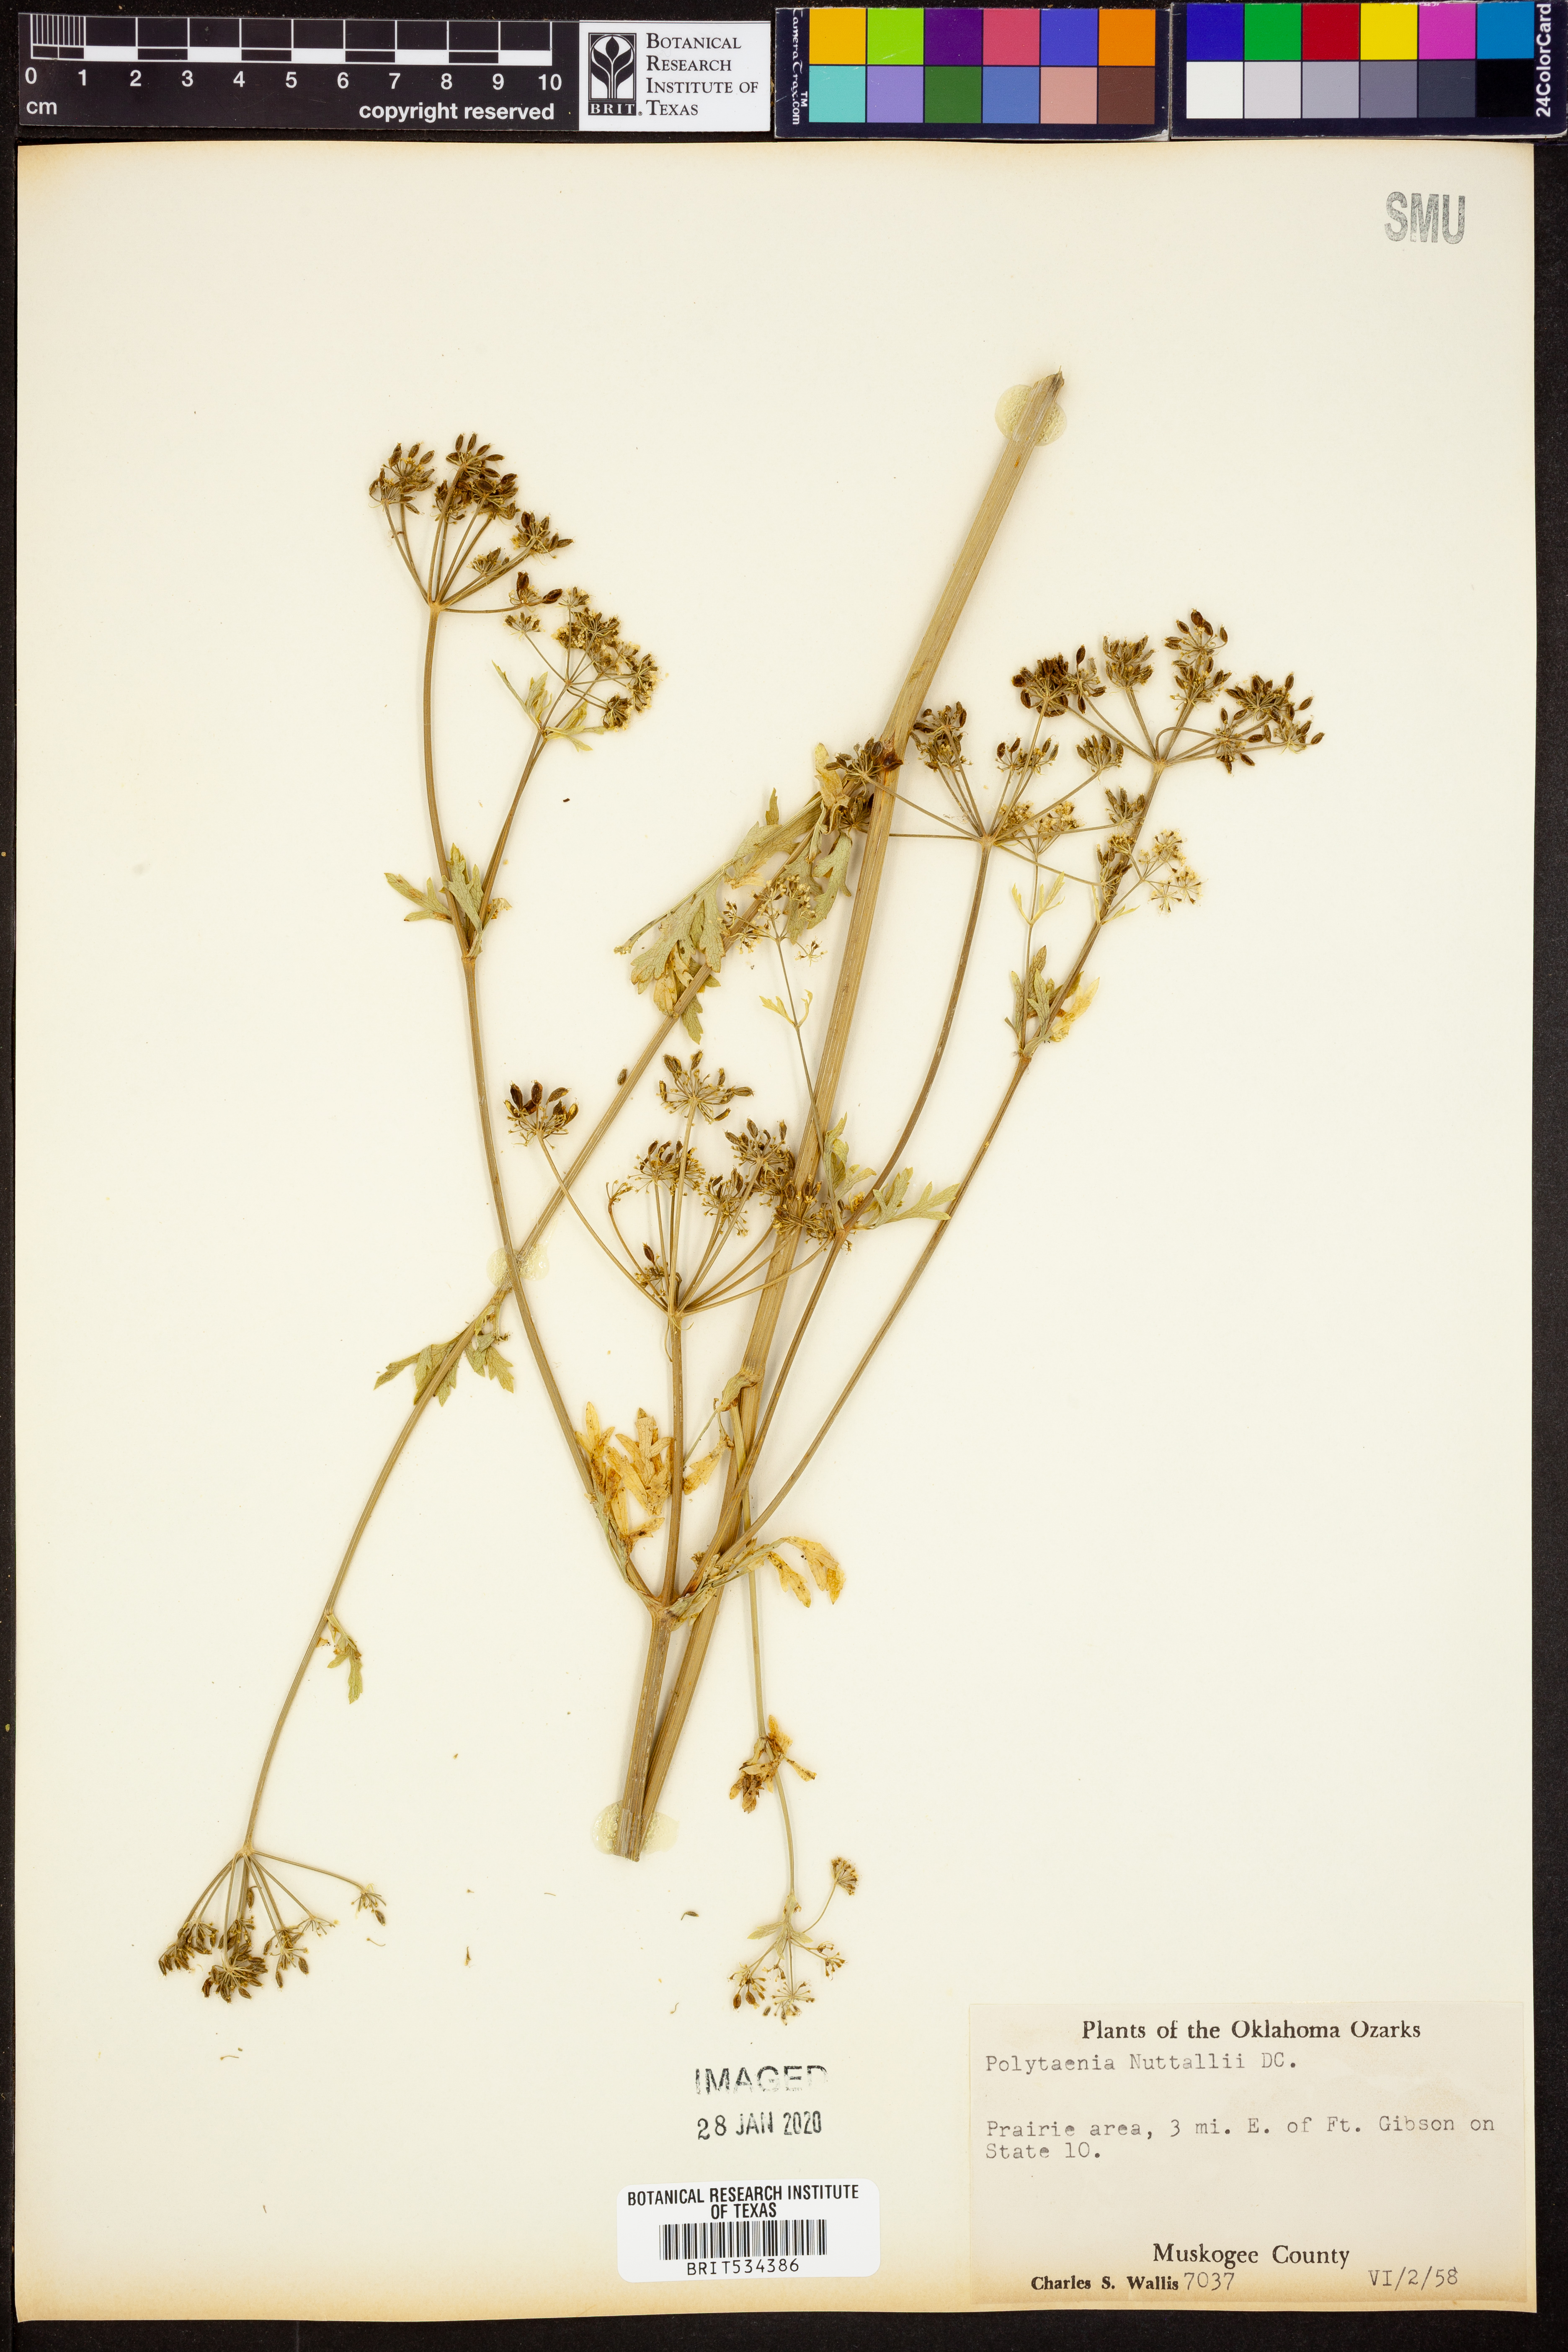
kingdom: Plantae
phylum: Tracheophyta
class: Magnoliopsida
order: Apiales
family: Apiaceae
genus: Polytaenia
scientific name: Polytaenia nuttallii
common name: Prairie-parsley
